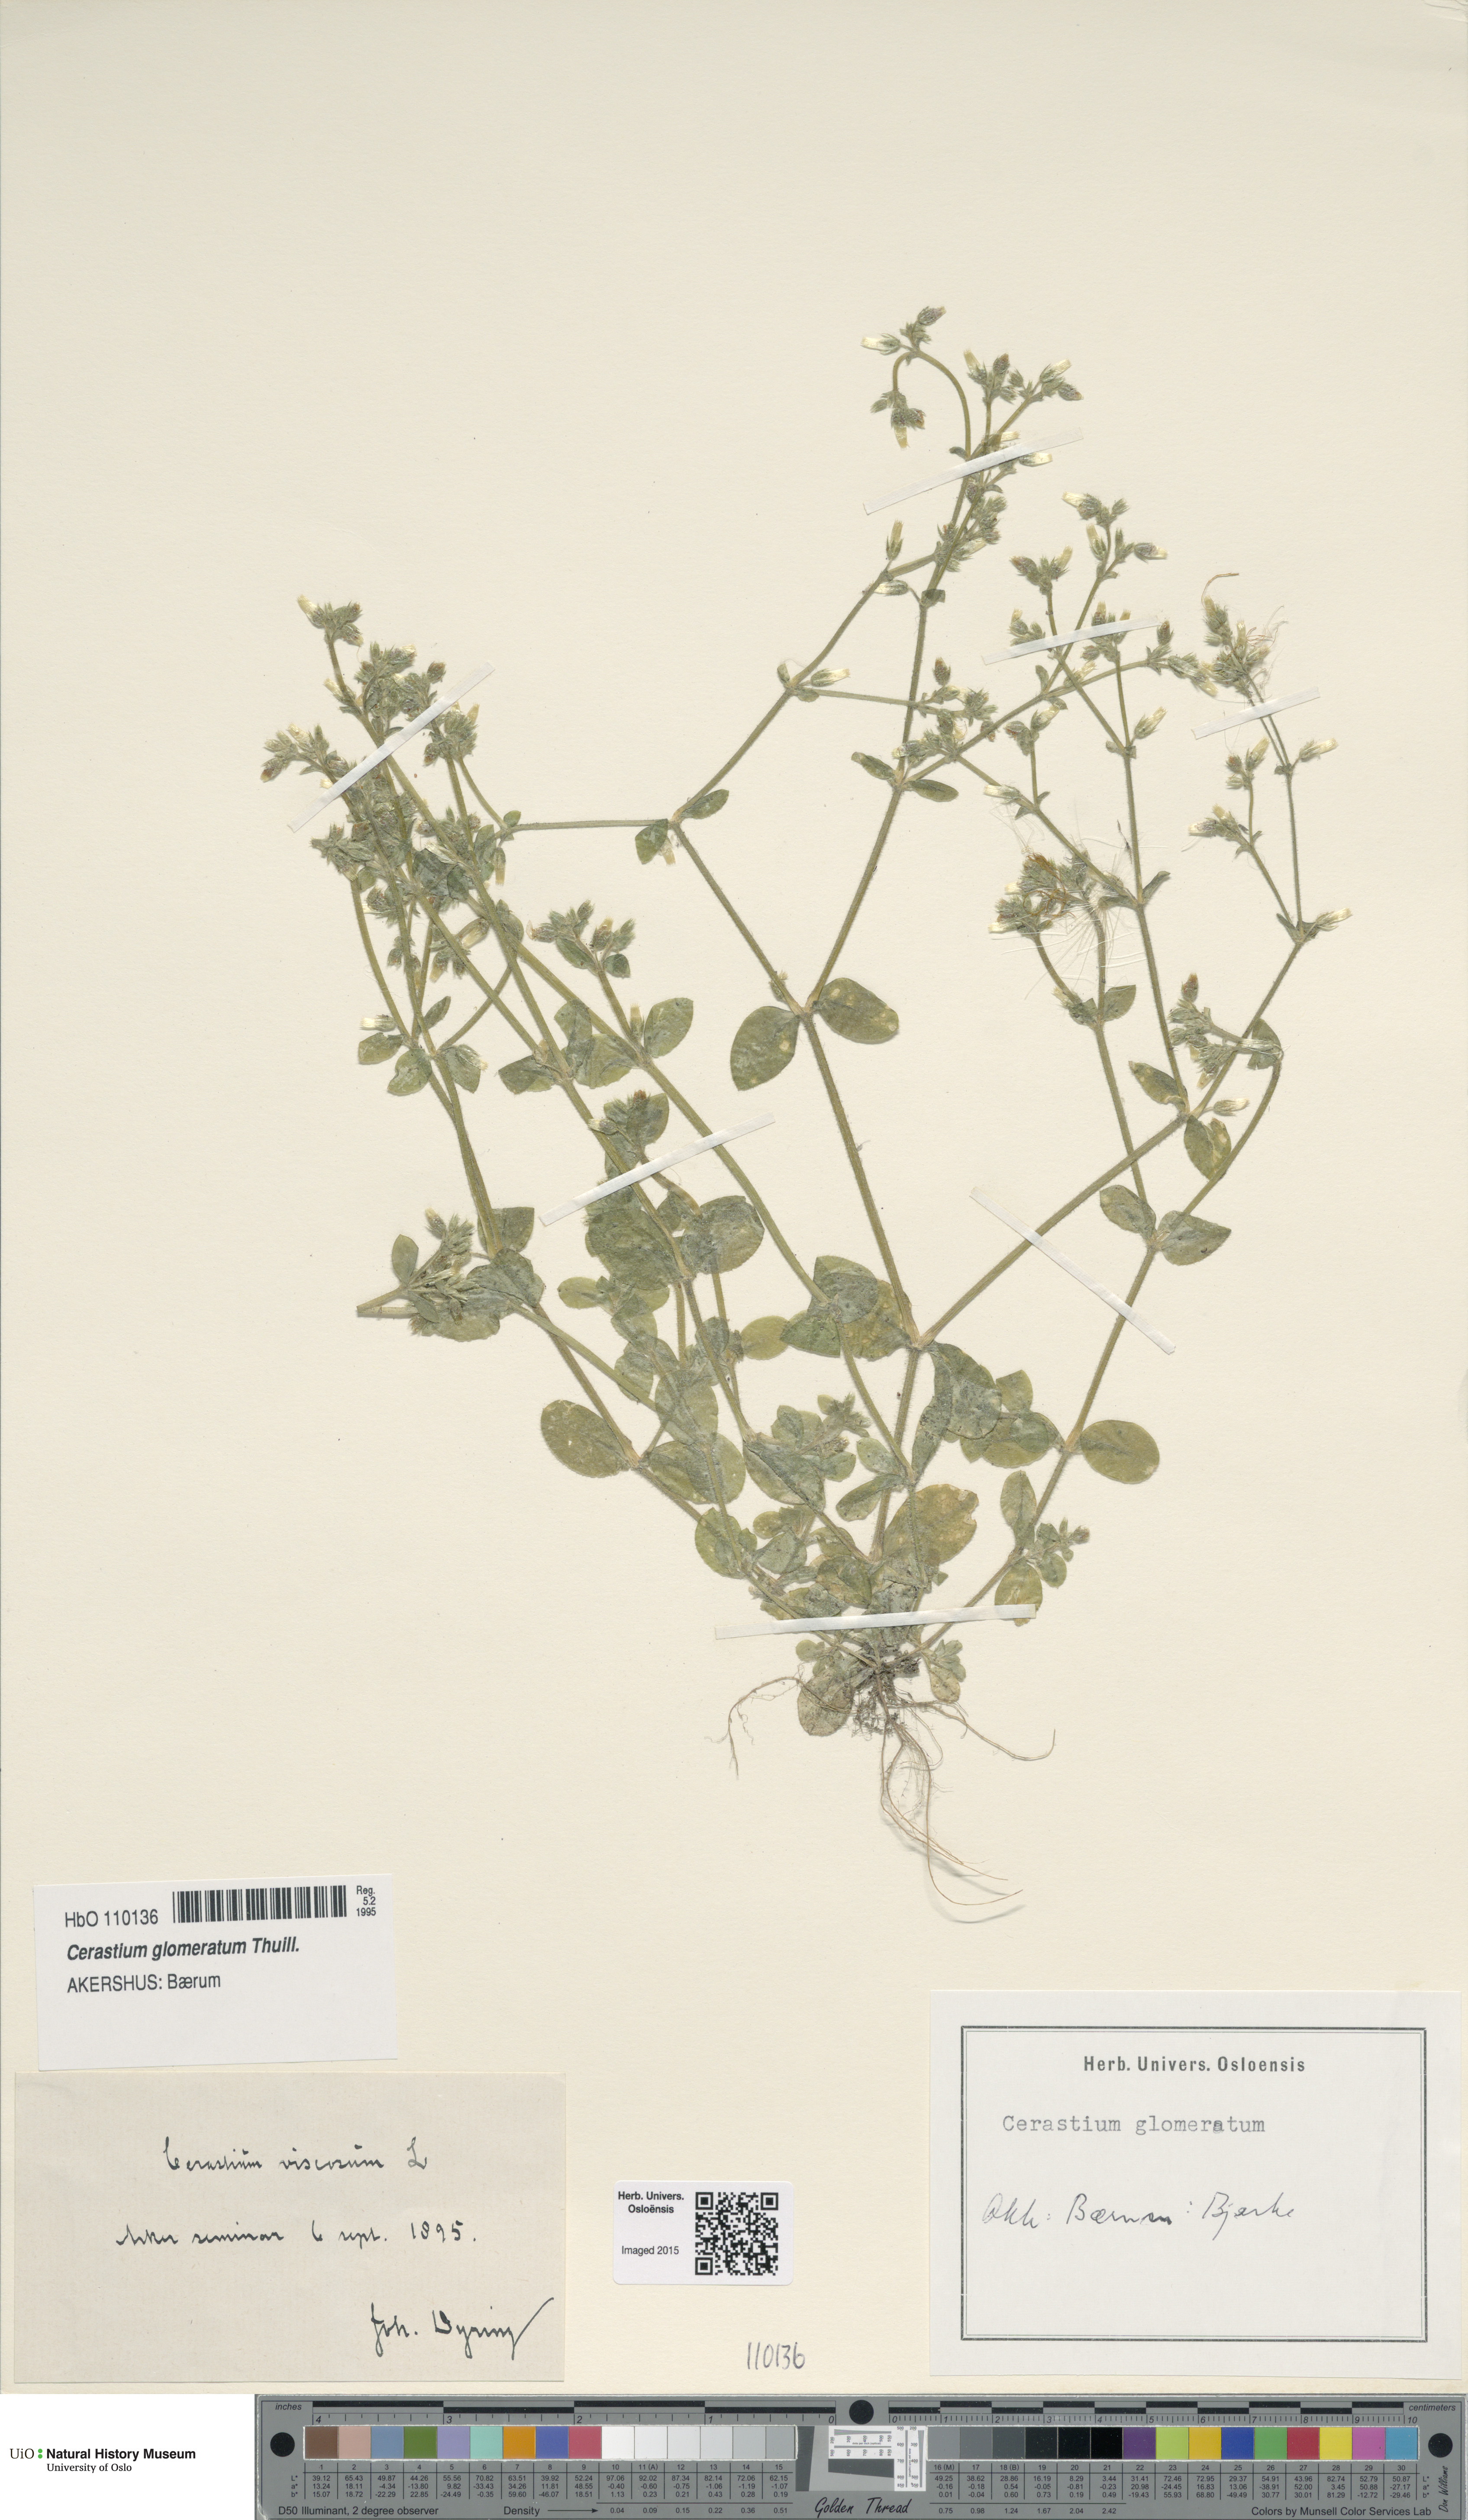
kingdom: Plantae
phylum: Tracheophyta
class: Magnoliopsida
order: Caryophyllales
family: Caryophyllaceae
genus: Cerastium
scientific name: Cerastium glomeratum
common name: Sticky chickweed
